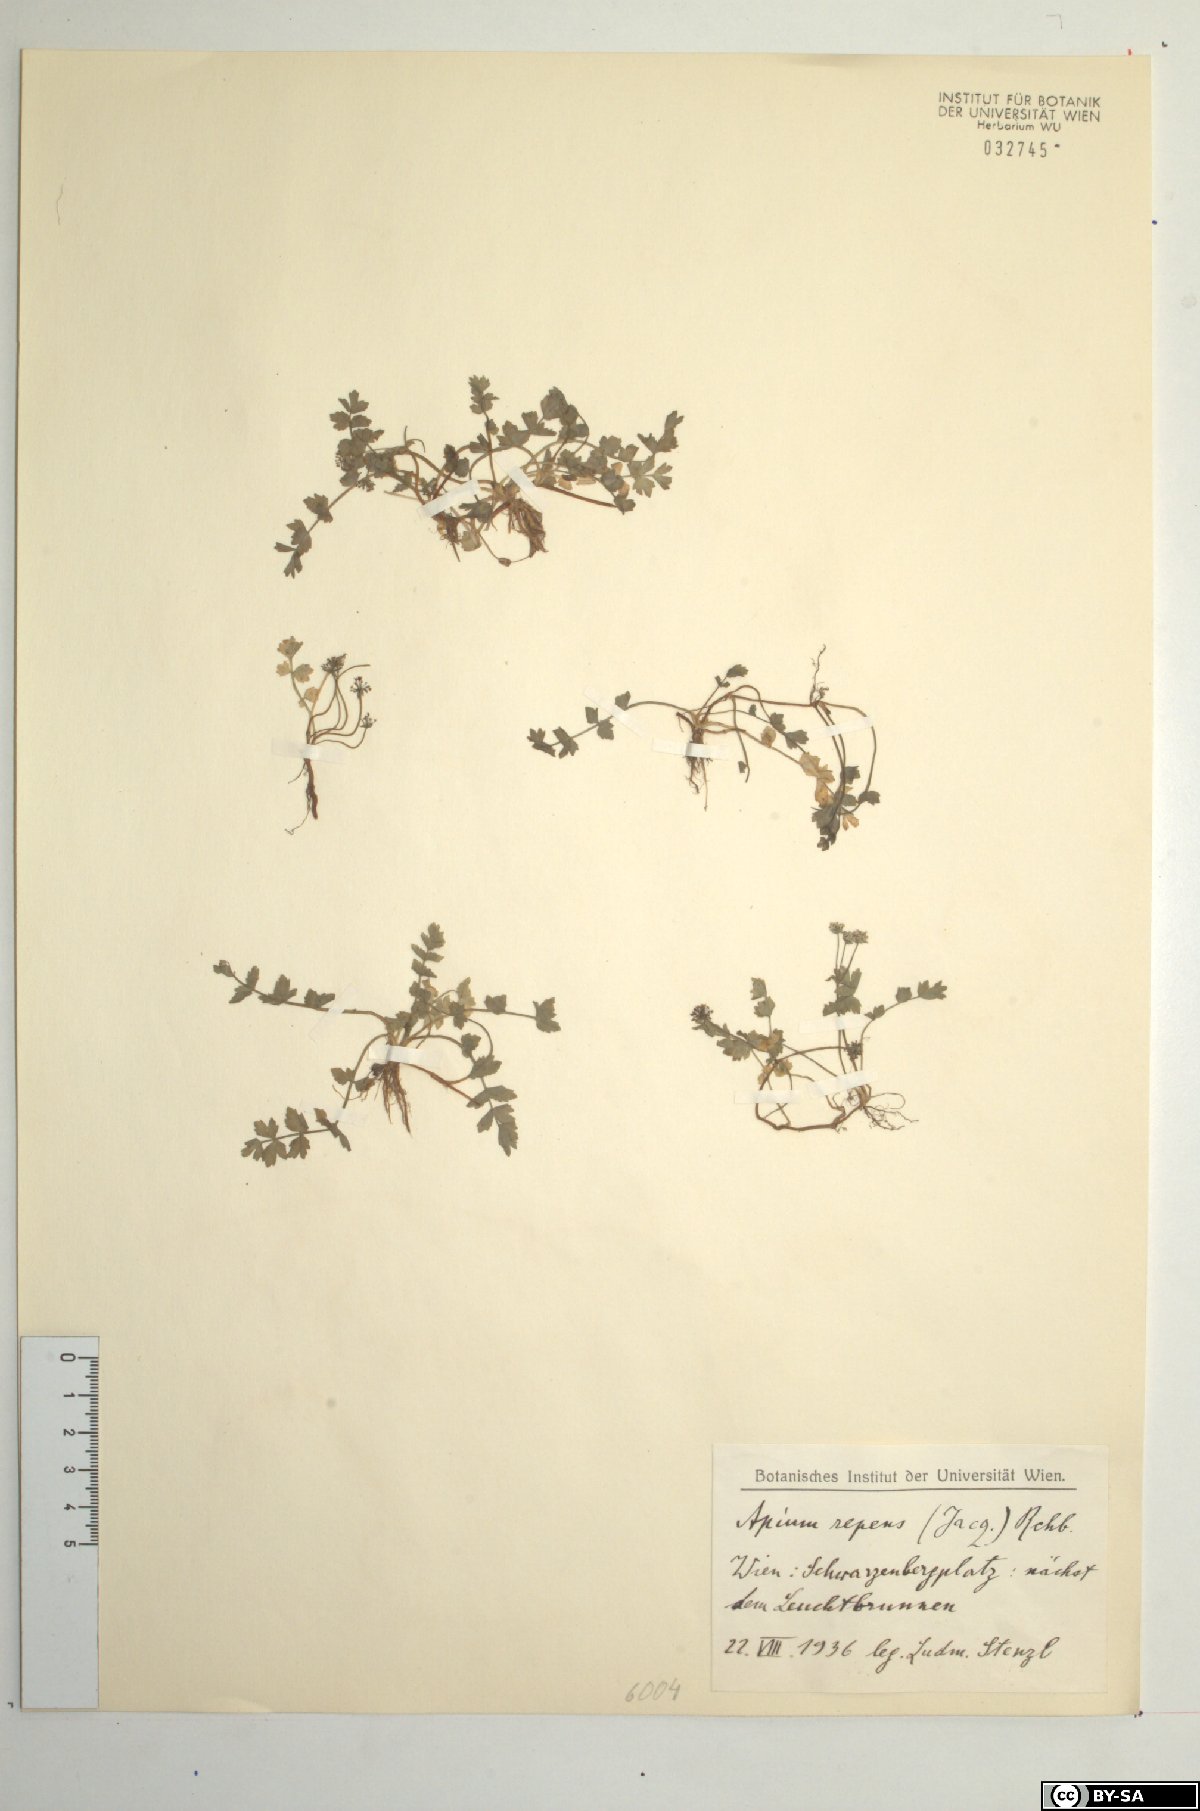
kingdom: Plantae
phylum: Tracheophyta
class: Magnoliopsida
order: Apiales
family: Apiaceae
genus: Helosciadium
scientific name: Helosciadium repens
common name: Creeping marshwort
